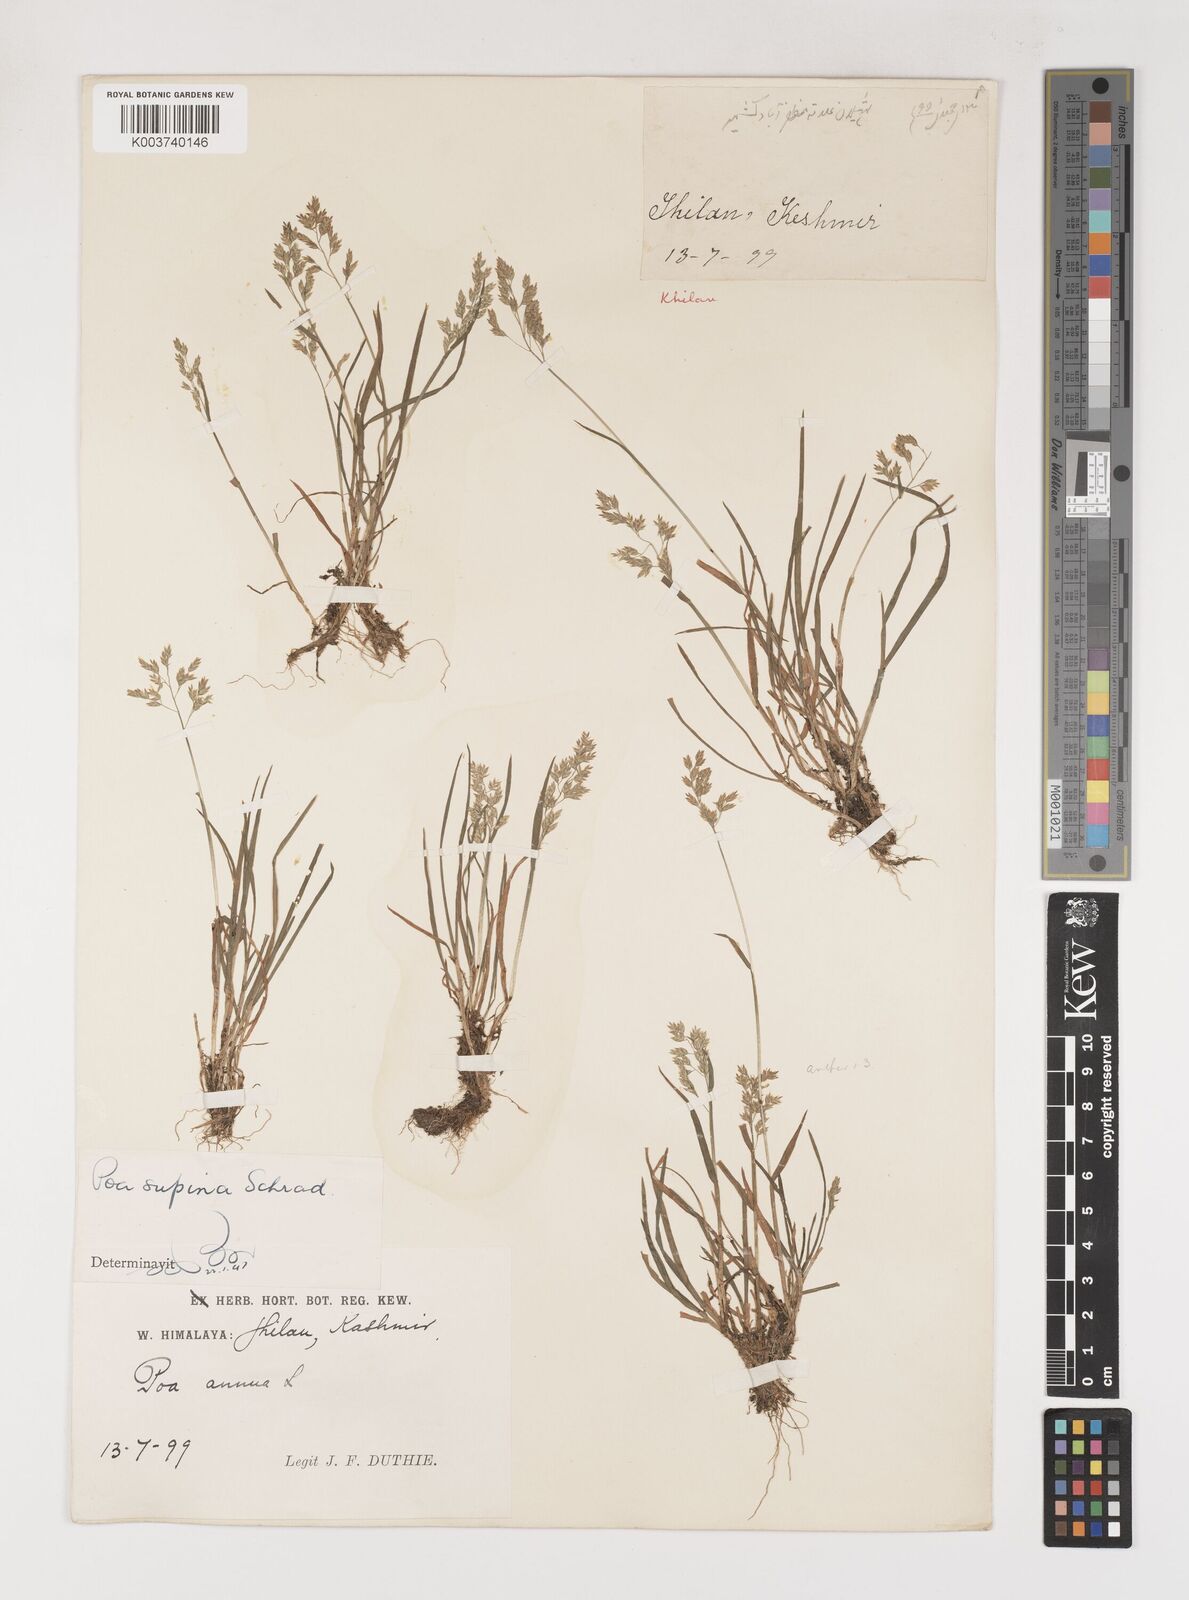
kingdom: Plantae
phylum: Tracheophyta
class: Liliopsida
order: Poales
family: Poaceae
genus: Poa
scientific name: Poa supina
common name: Supina bluegrass
